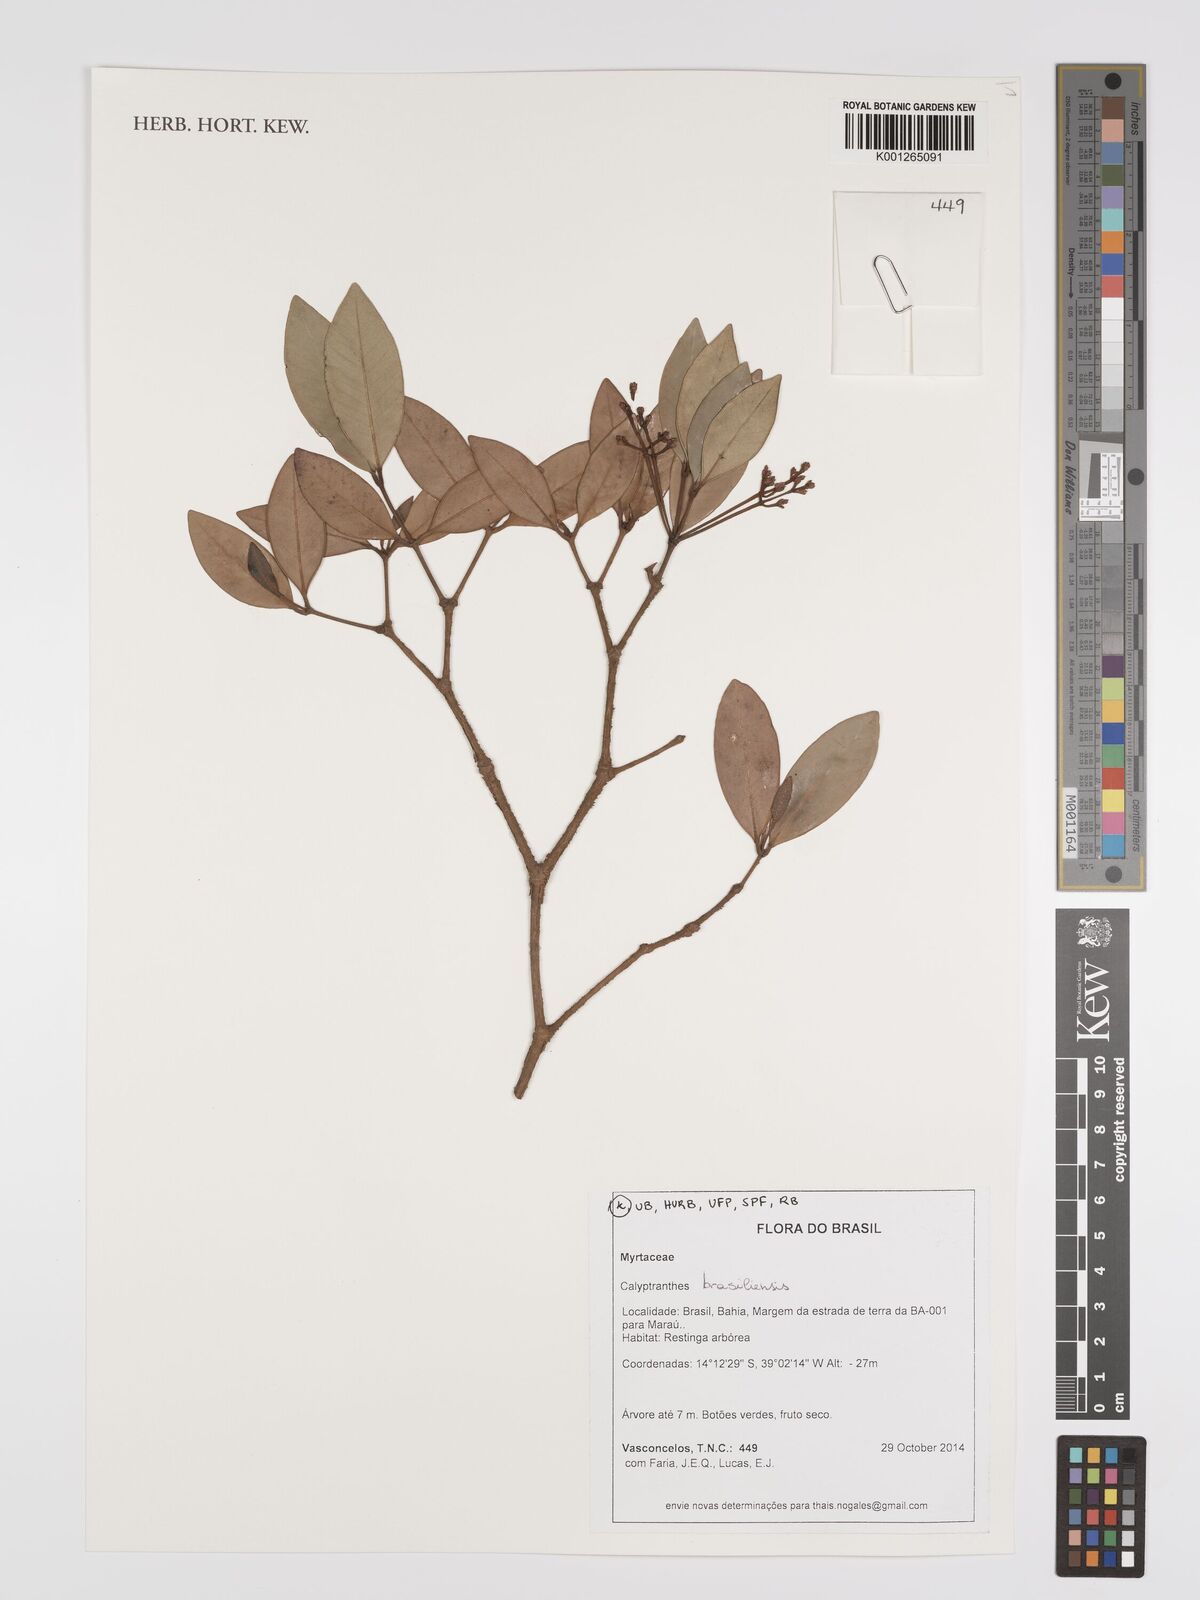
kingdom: Plantae
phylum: Tracheophyta
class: Magnoliopsida
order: Myrtales
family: Myrtaceae
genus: Myrcia
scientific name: Myrcia neobrasiliensis
